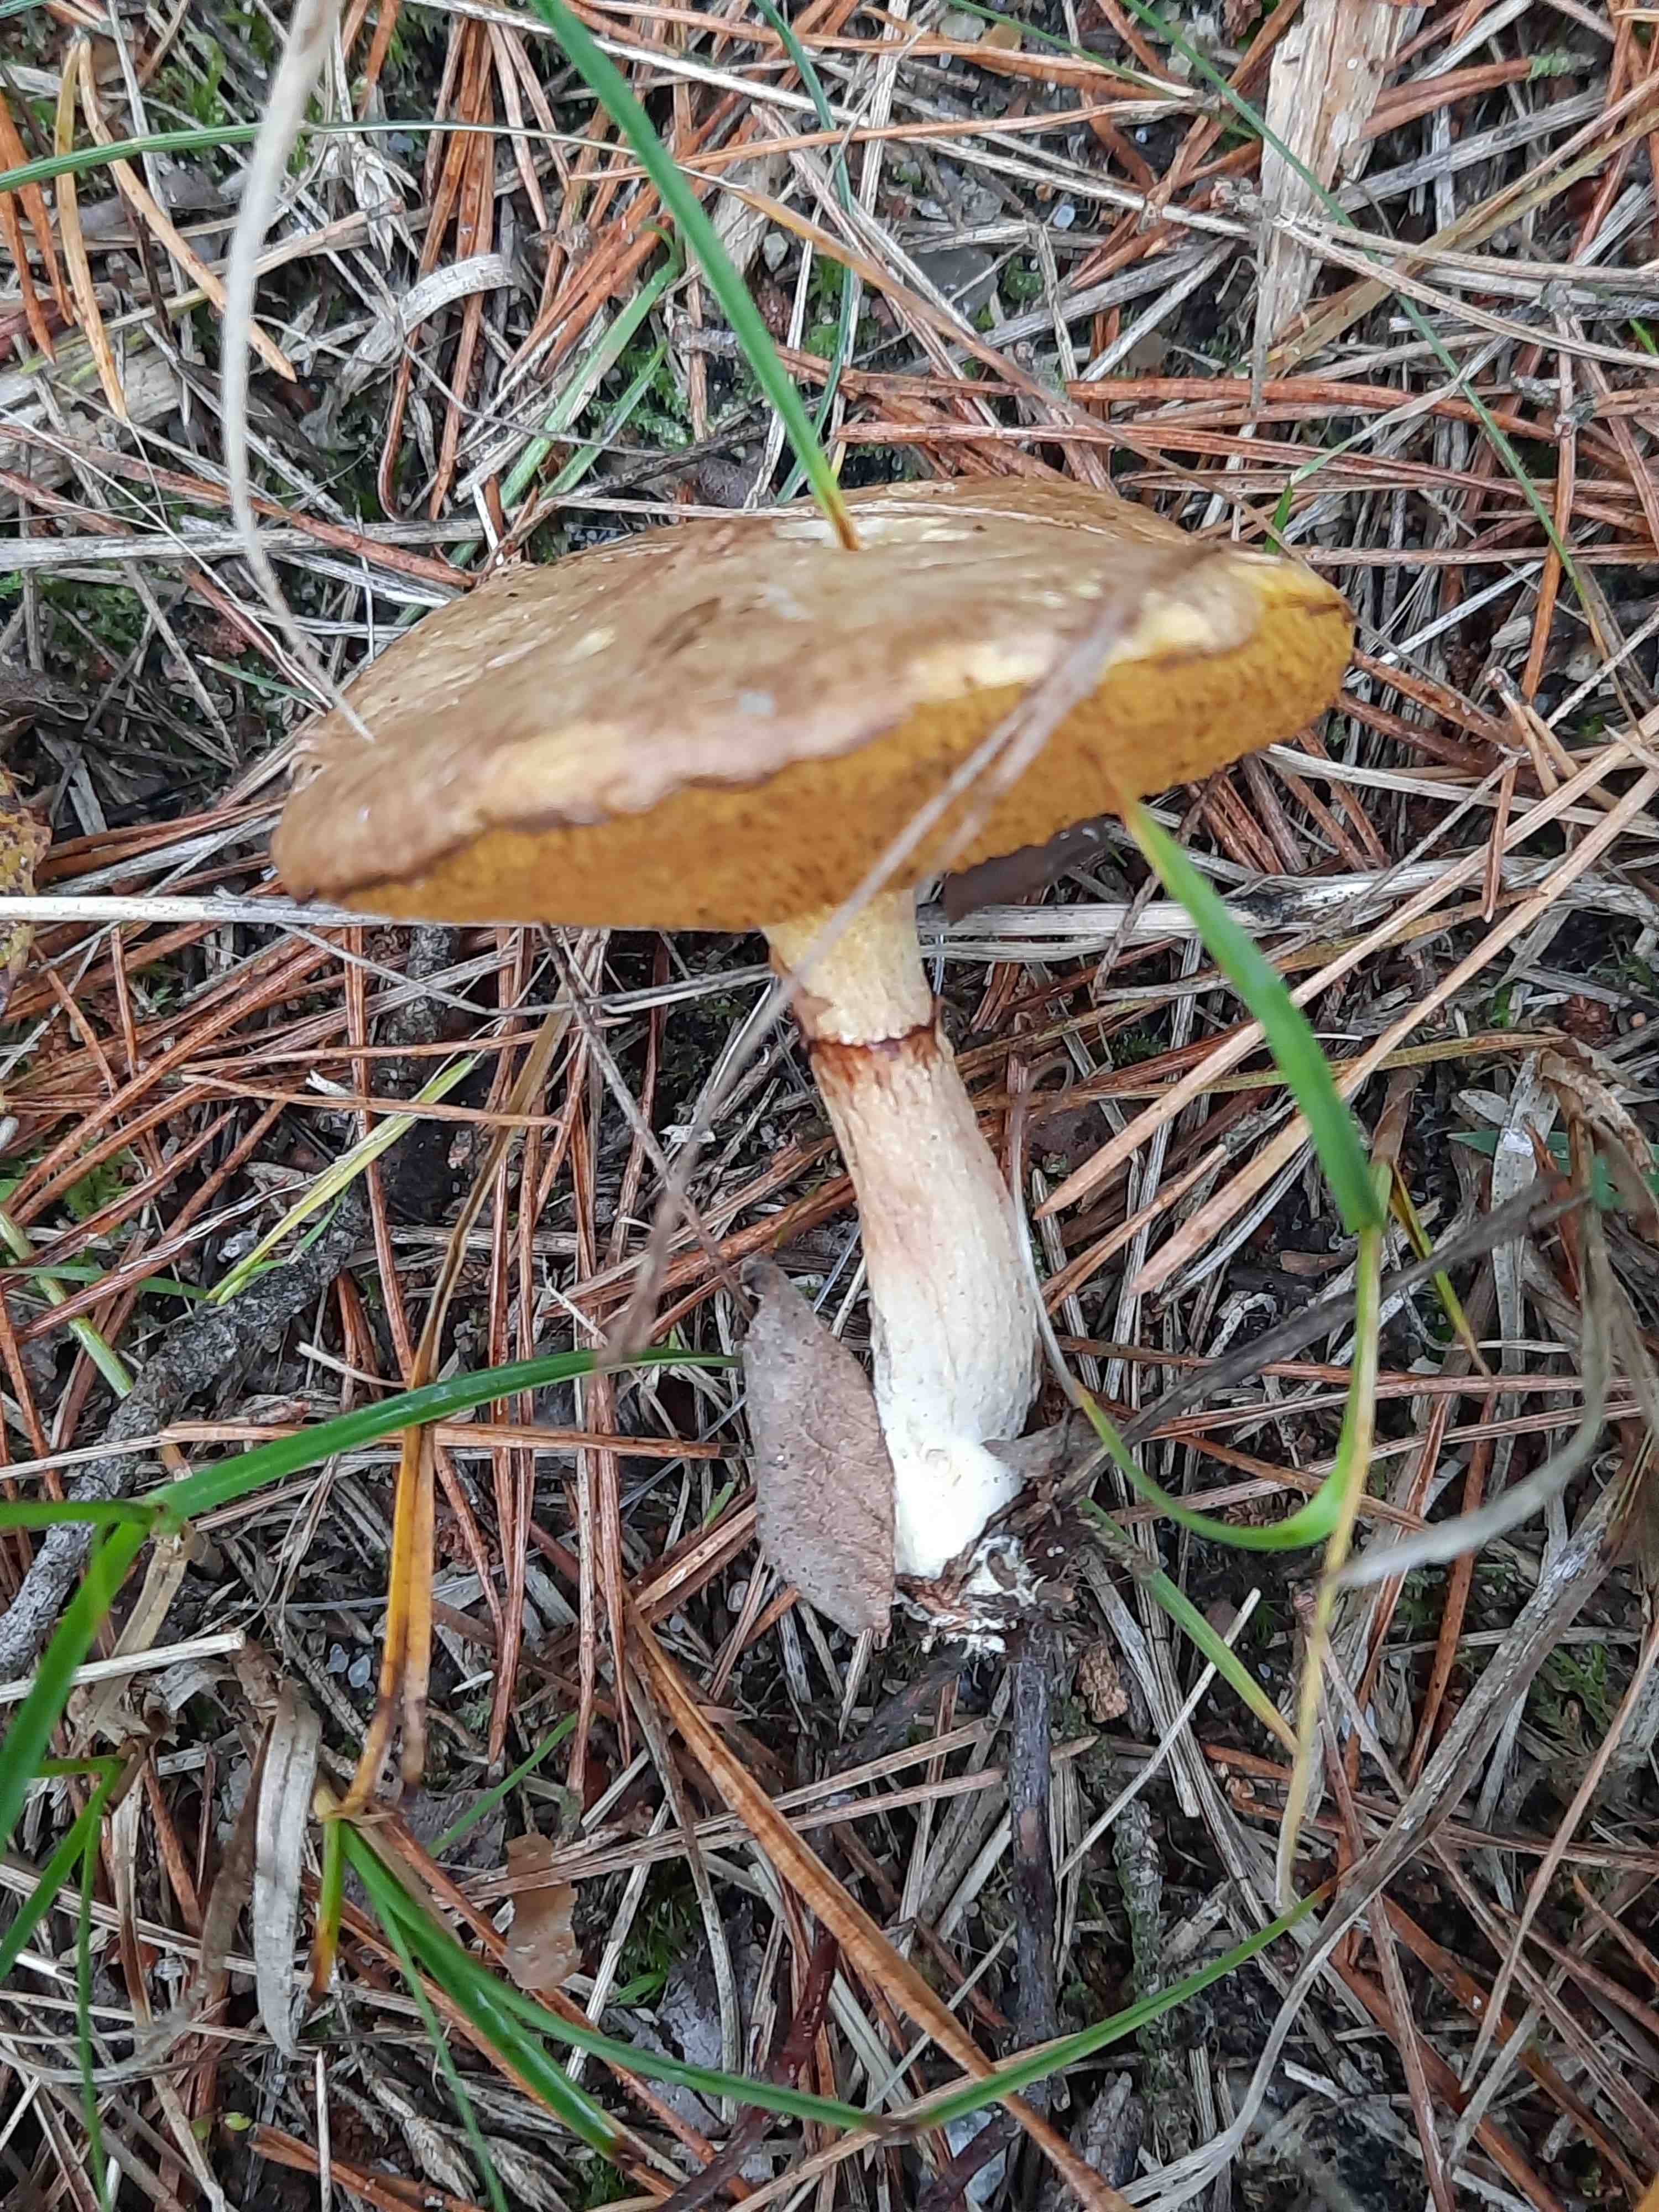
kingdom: Fungi
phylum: Basidiomycota
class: Agaricomycetes
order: Boletales
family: Suillaceae
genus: Suillus
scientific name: Suillus flavidus
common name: mose-slimrørhat
